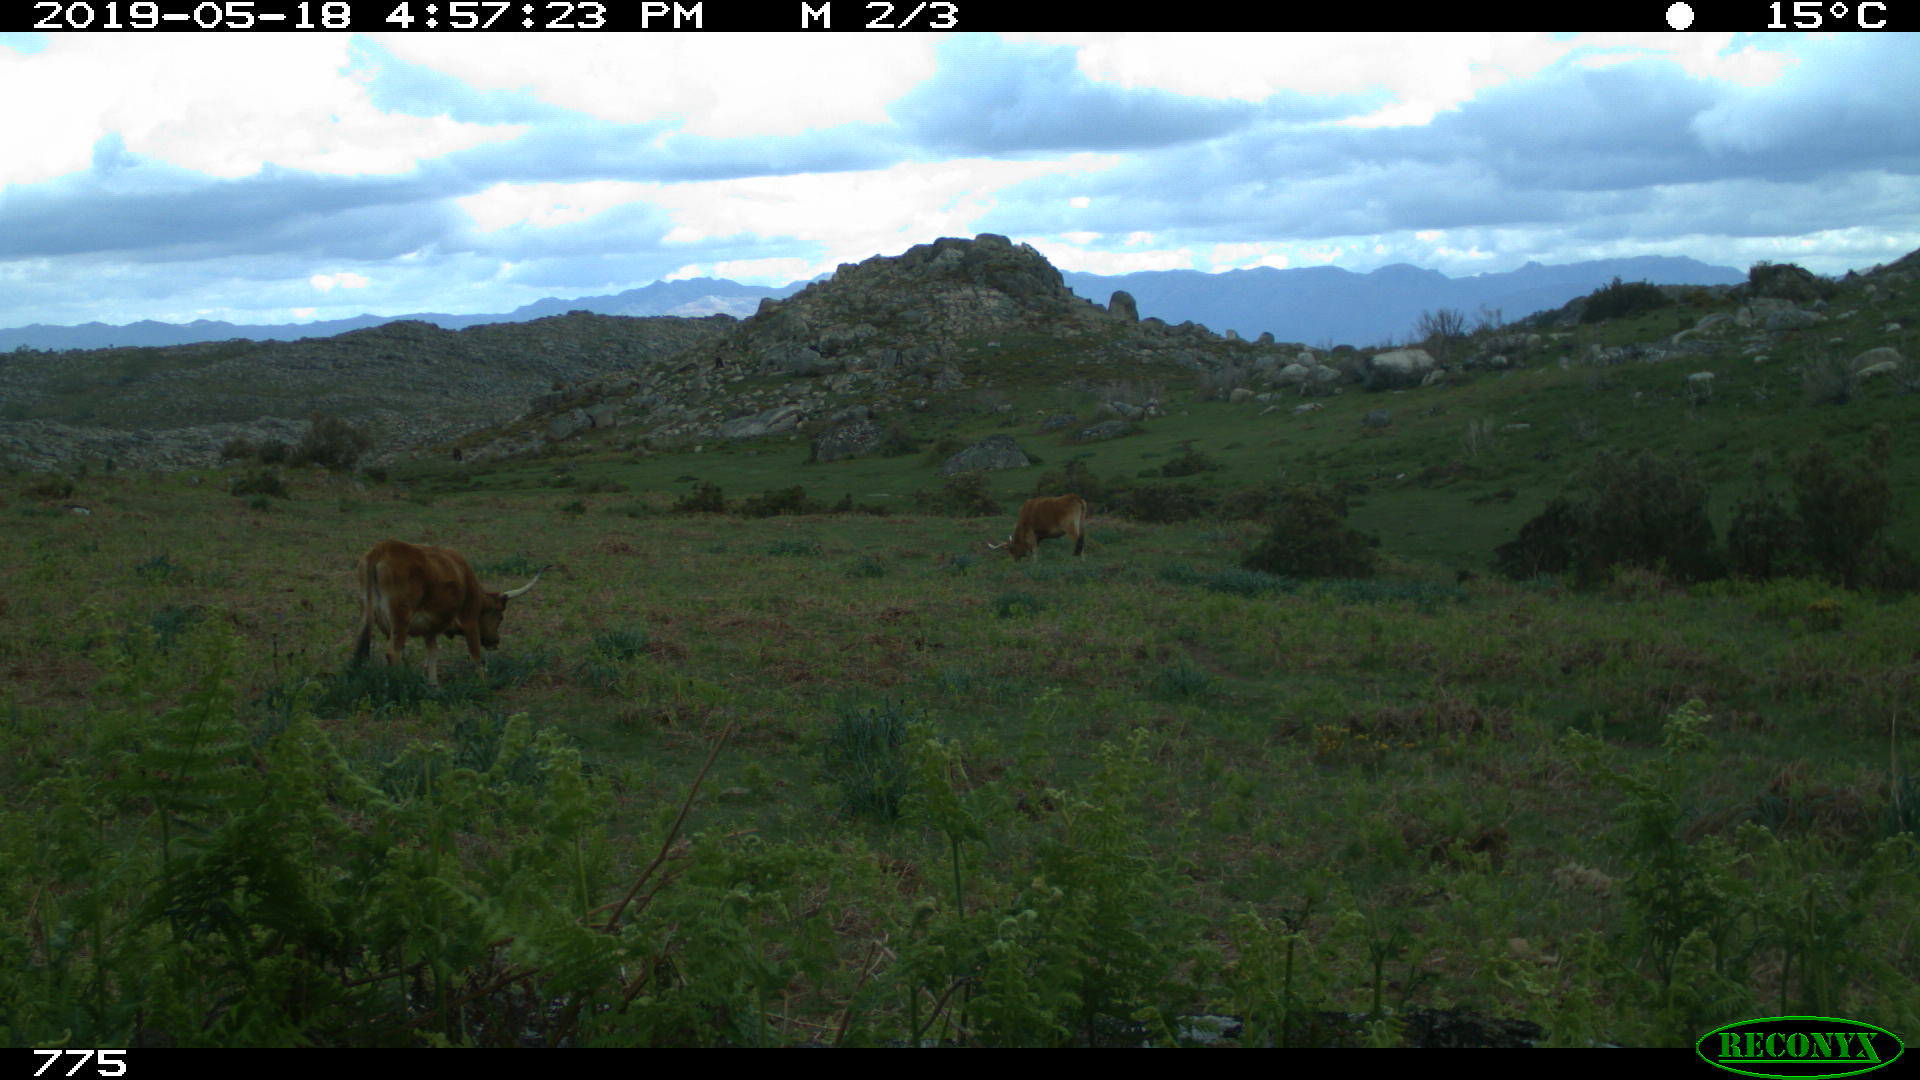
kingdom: Animalia
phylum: Chordata
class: Mammalia
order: Artiodactyla
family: Bovidae
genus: Bos
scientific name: Bos taurus
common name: Domesticated cattle
